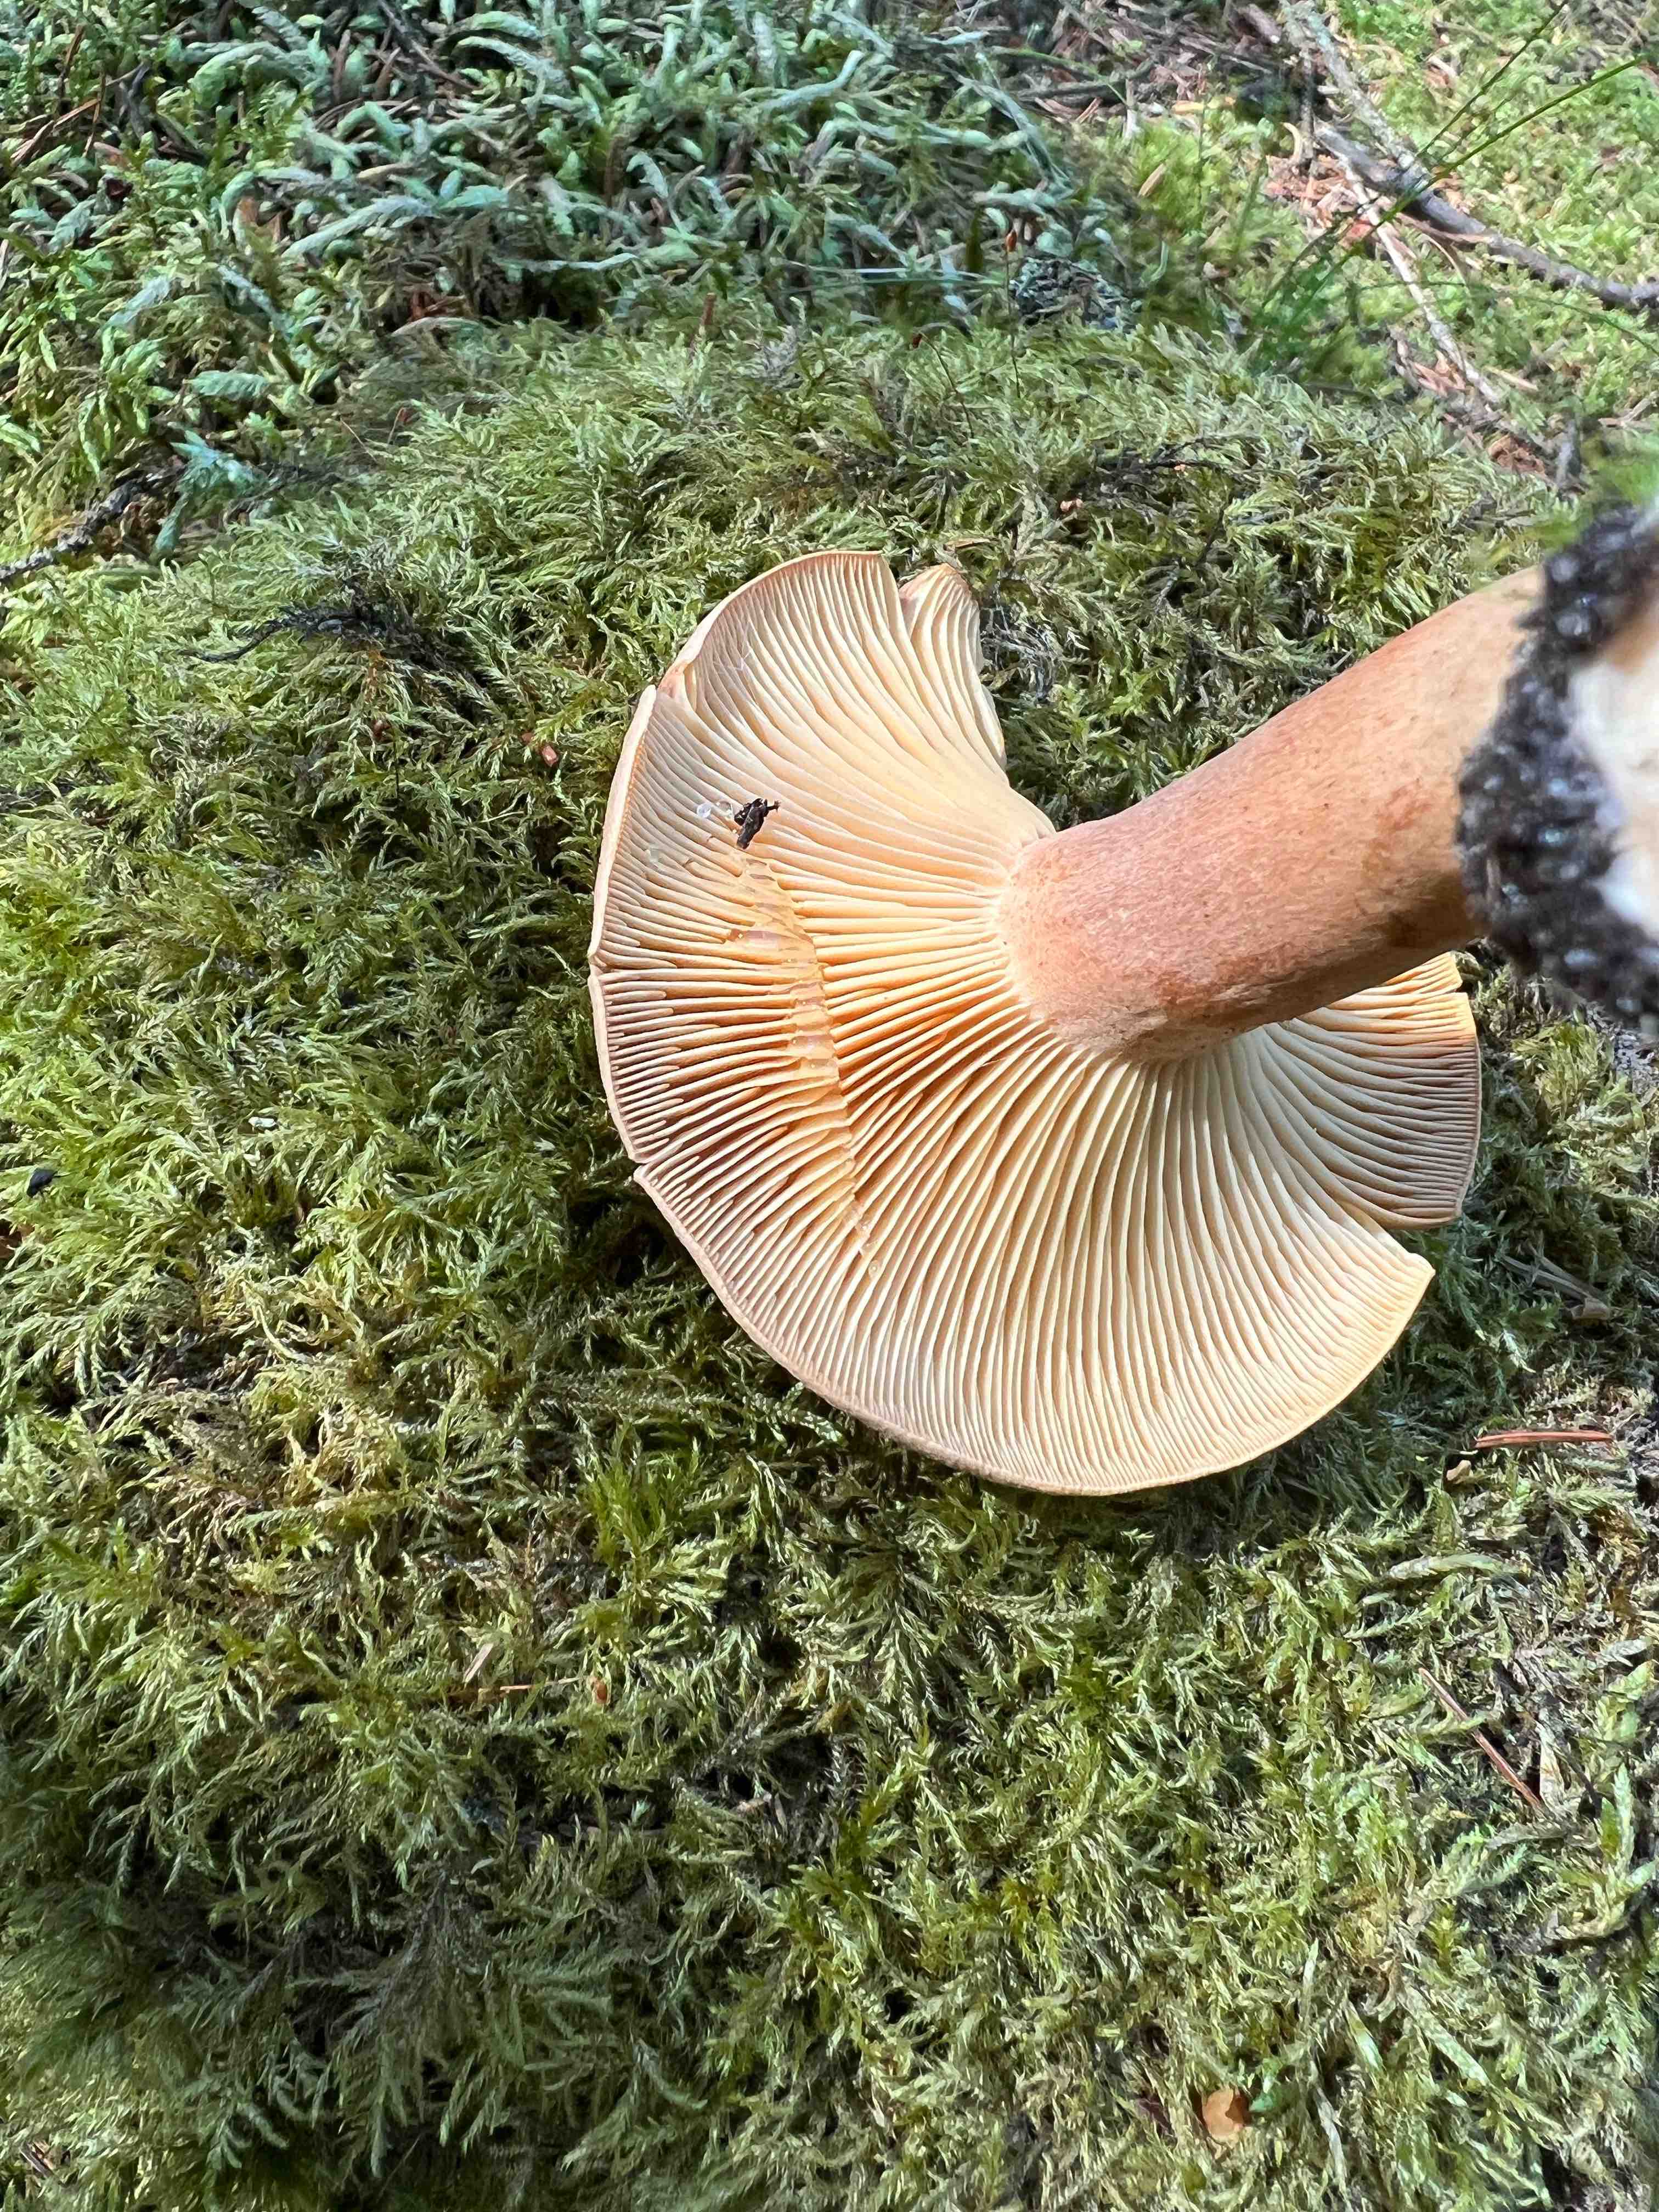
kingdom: Fungi
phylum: Basidiomycota
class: Agaricomycetes
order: Russulales
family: Russulaceae
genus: Lactarius
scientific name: Lactarius helvus
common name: mose-mælkehat
